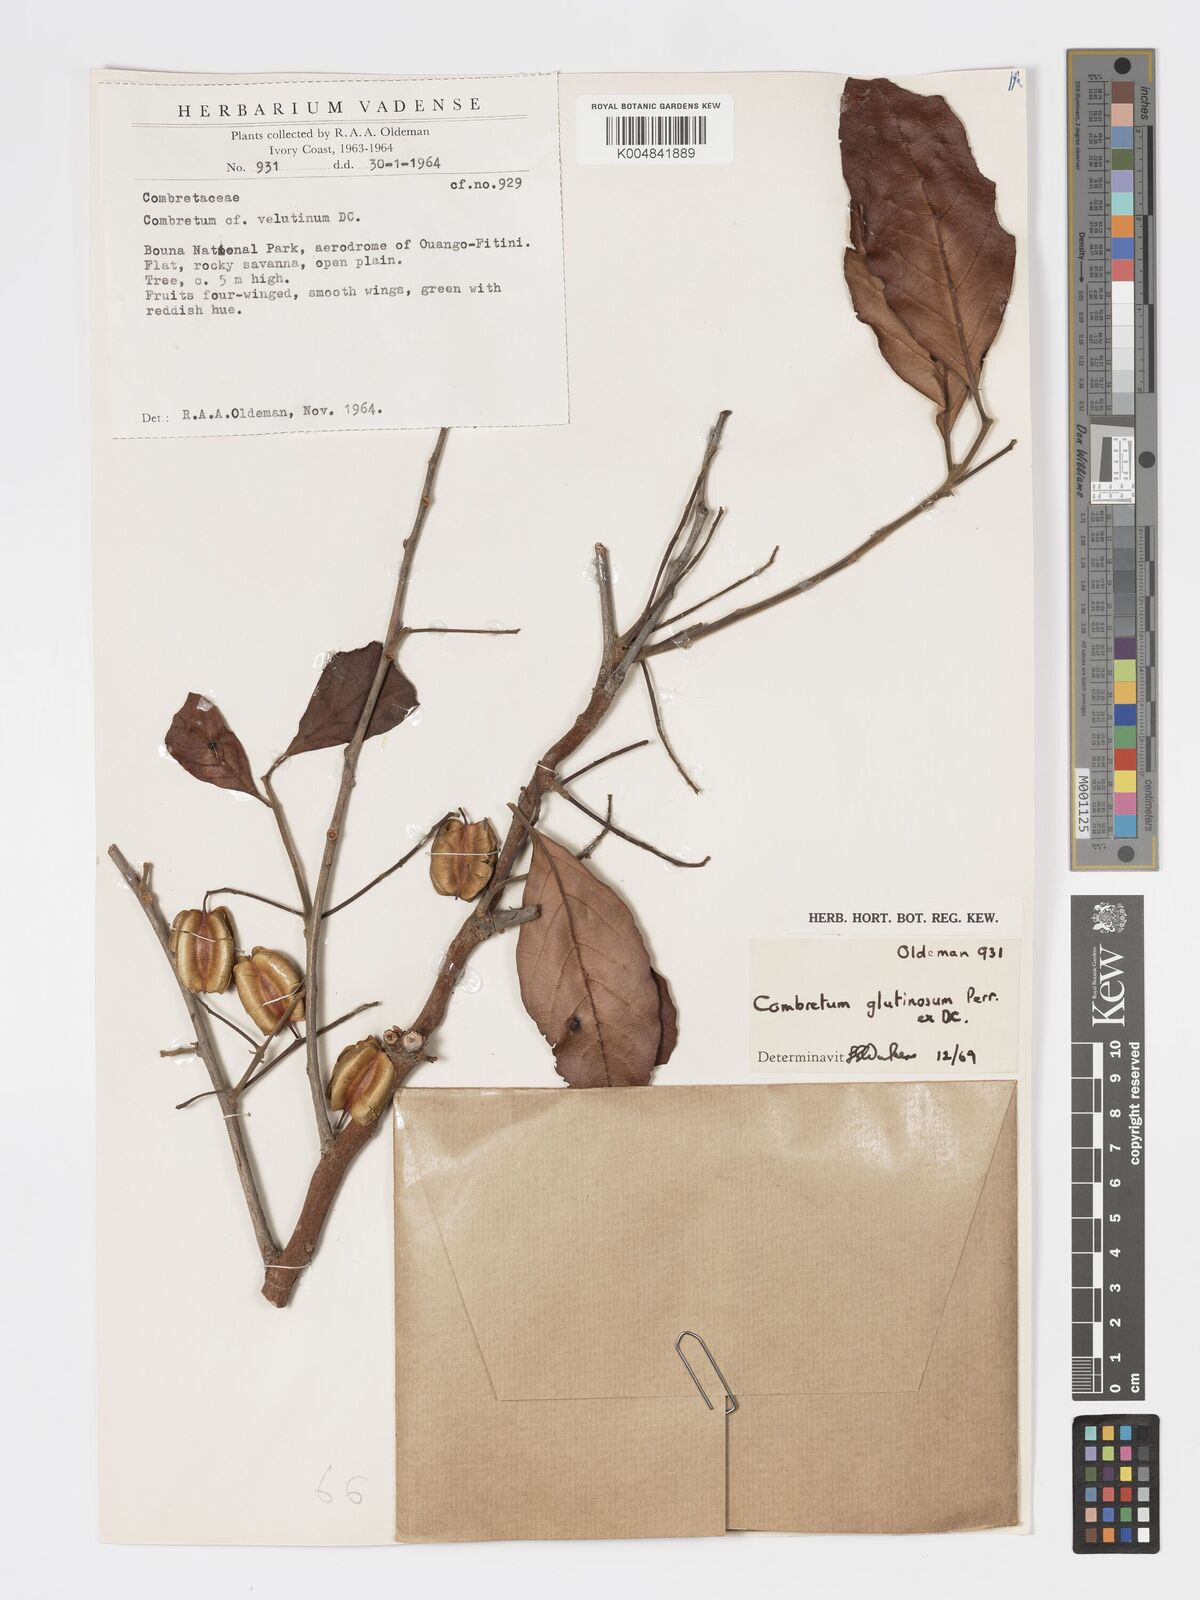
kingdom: Plantae
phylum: Tracheophyta
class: Magnoliopsida
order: Myrtales
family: Combretaceae
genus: Combretum
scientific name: Combretum
